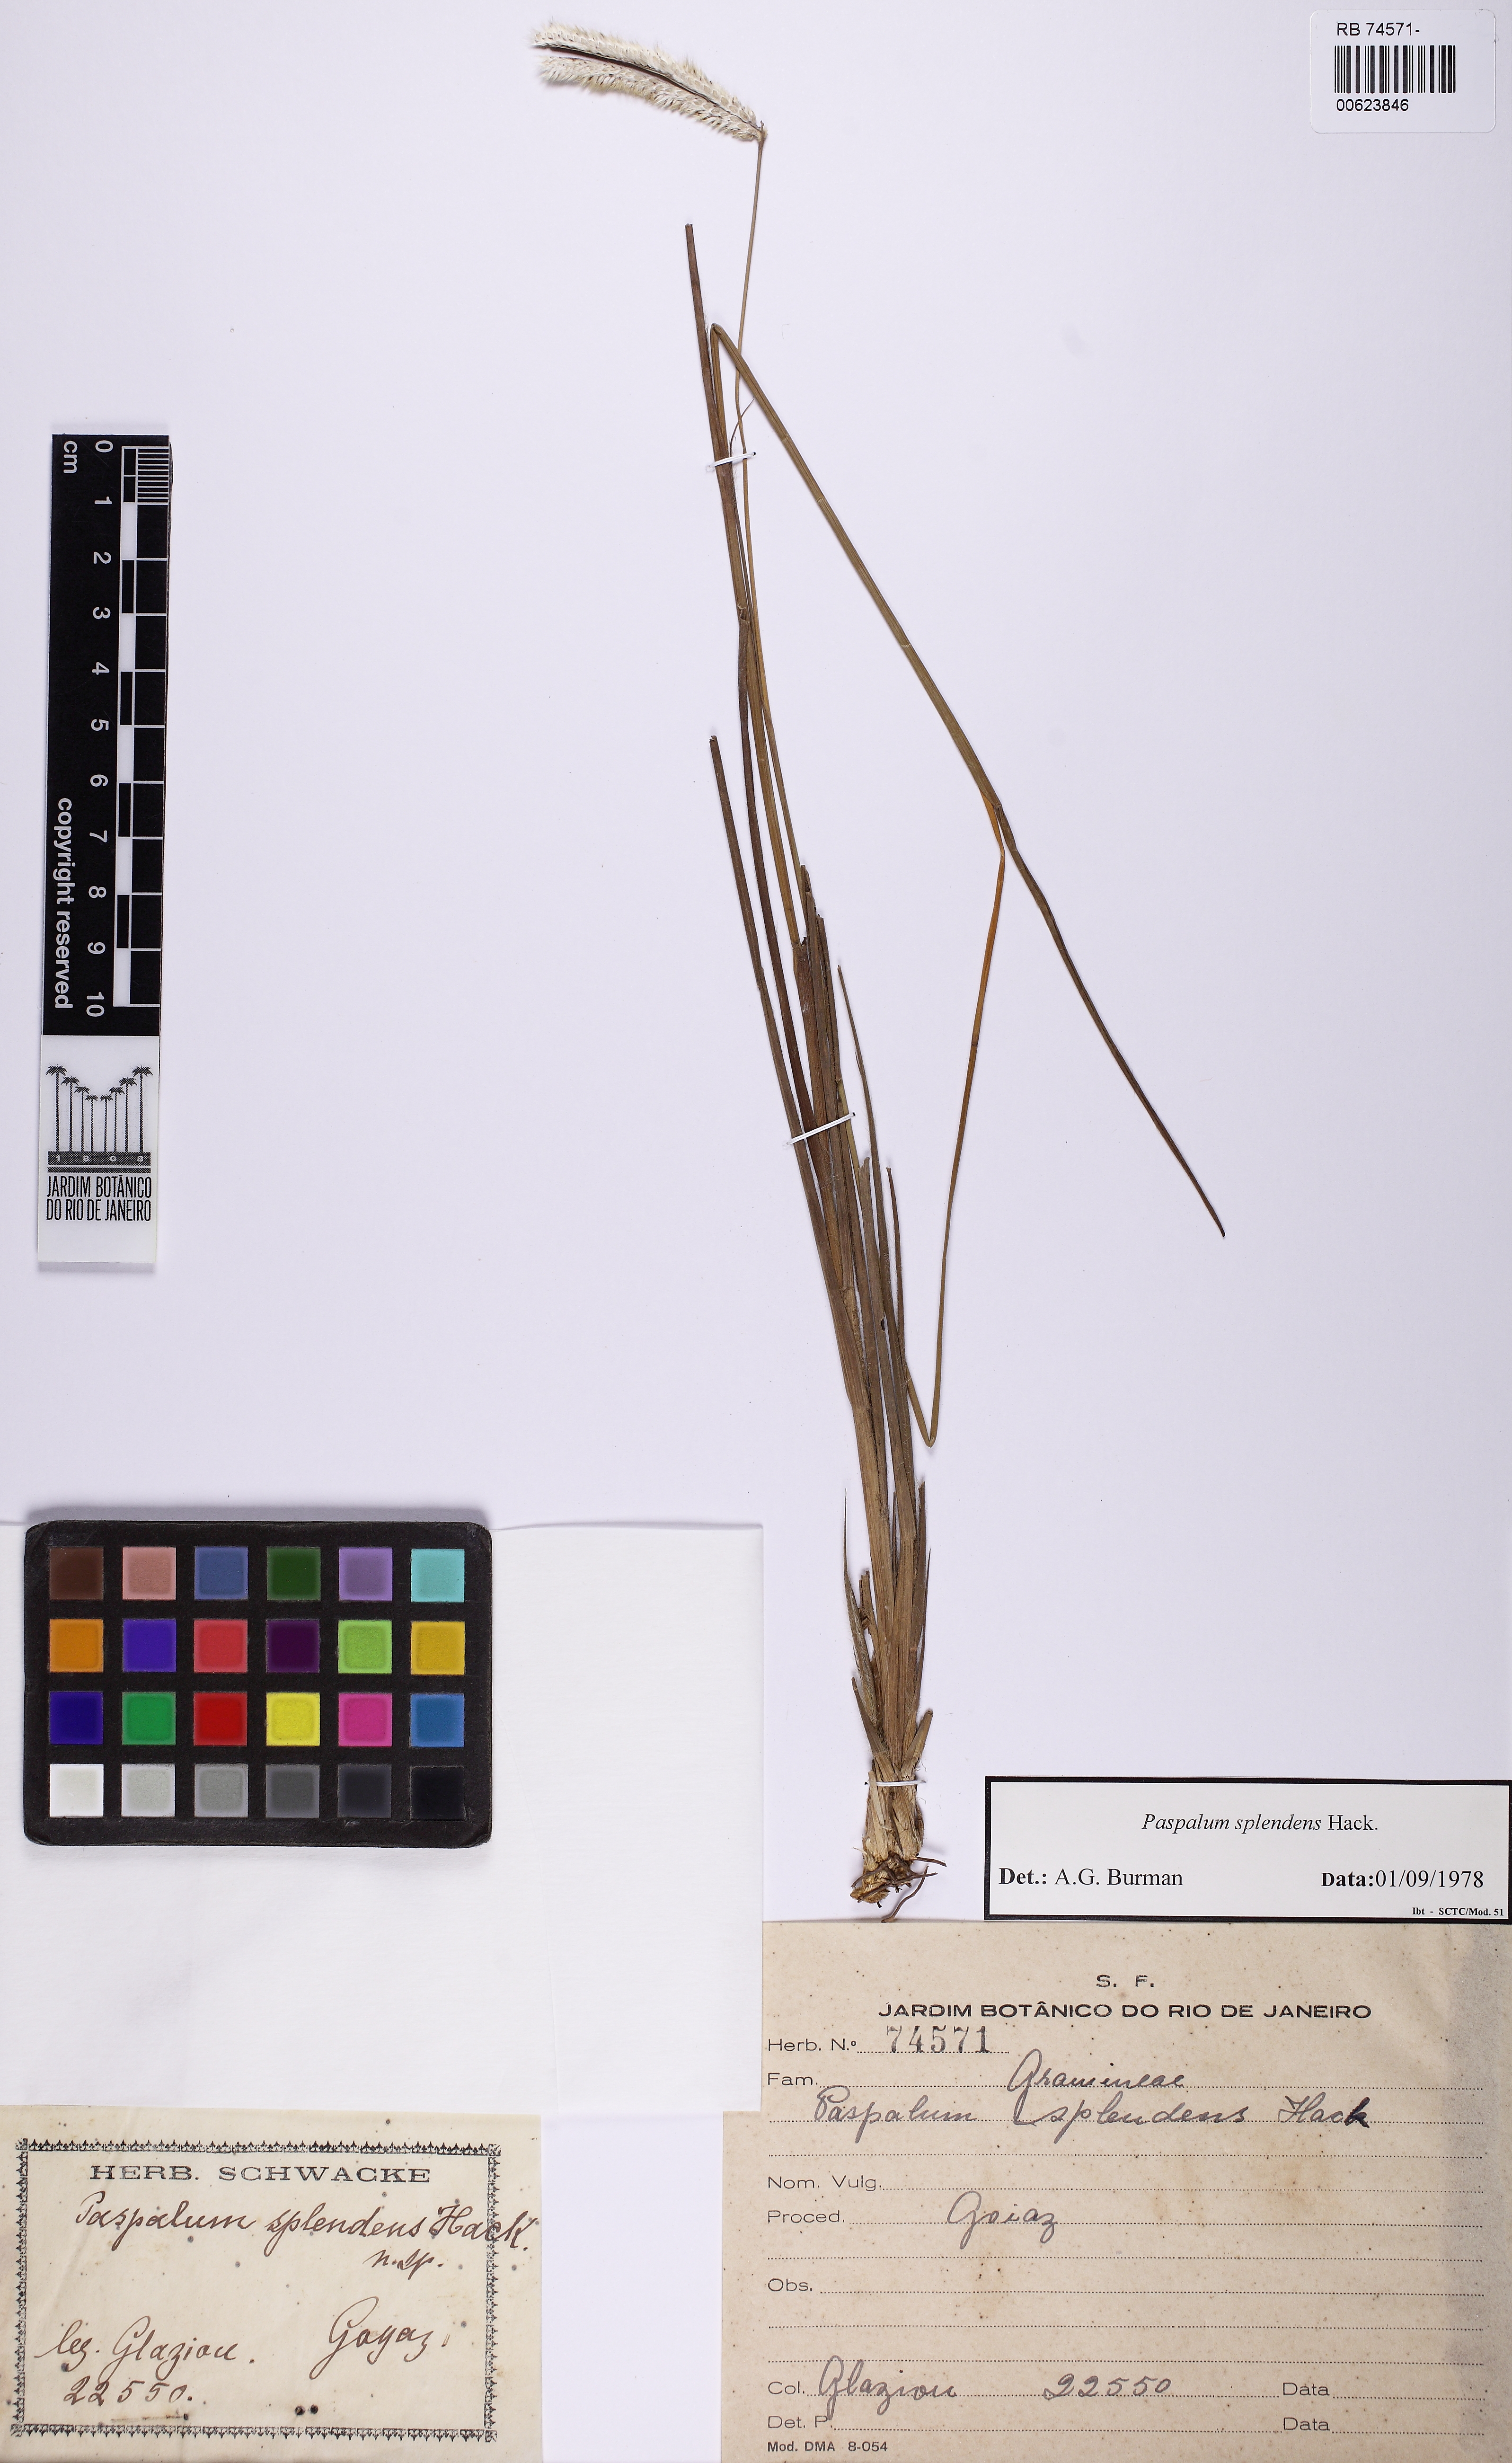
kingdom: Plantae
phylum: Tracheophyta
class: Liliopsida
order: Poales
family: Poaceae
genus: Paspalum
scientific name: Paspalum eucomum
